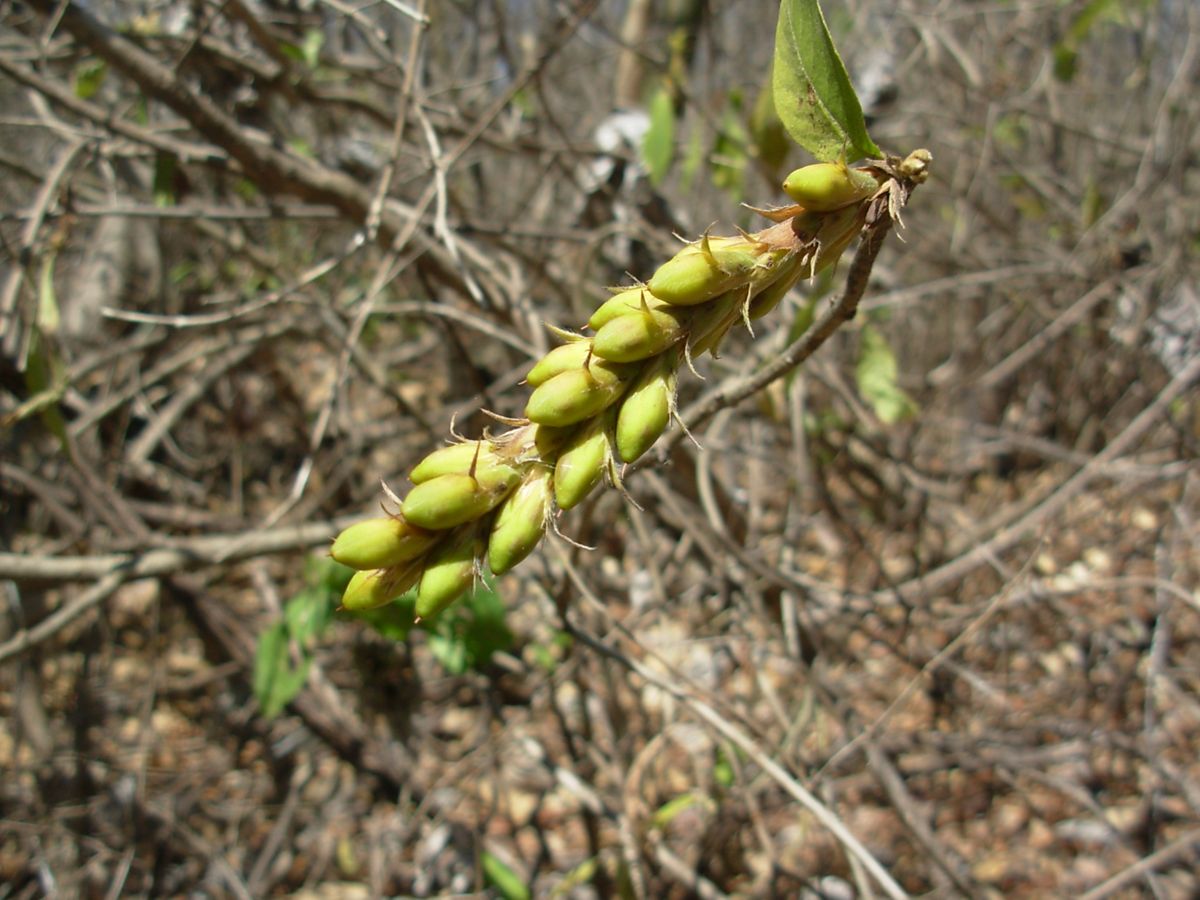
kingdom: Plantae
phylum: Tracheophyta
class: Magnoliopsida
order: Lamiales
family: Acanthaceae
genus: Aphelandra
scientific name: Aphelandra scabra
